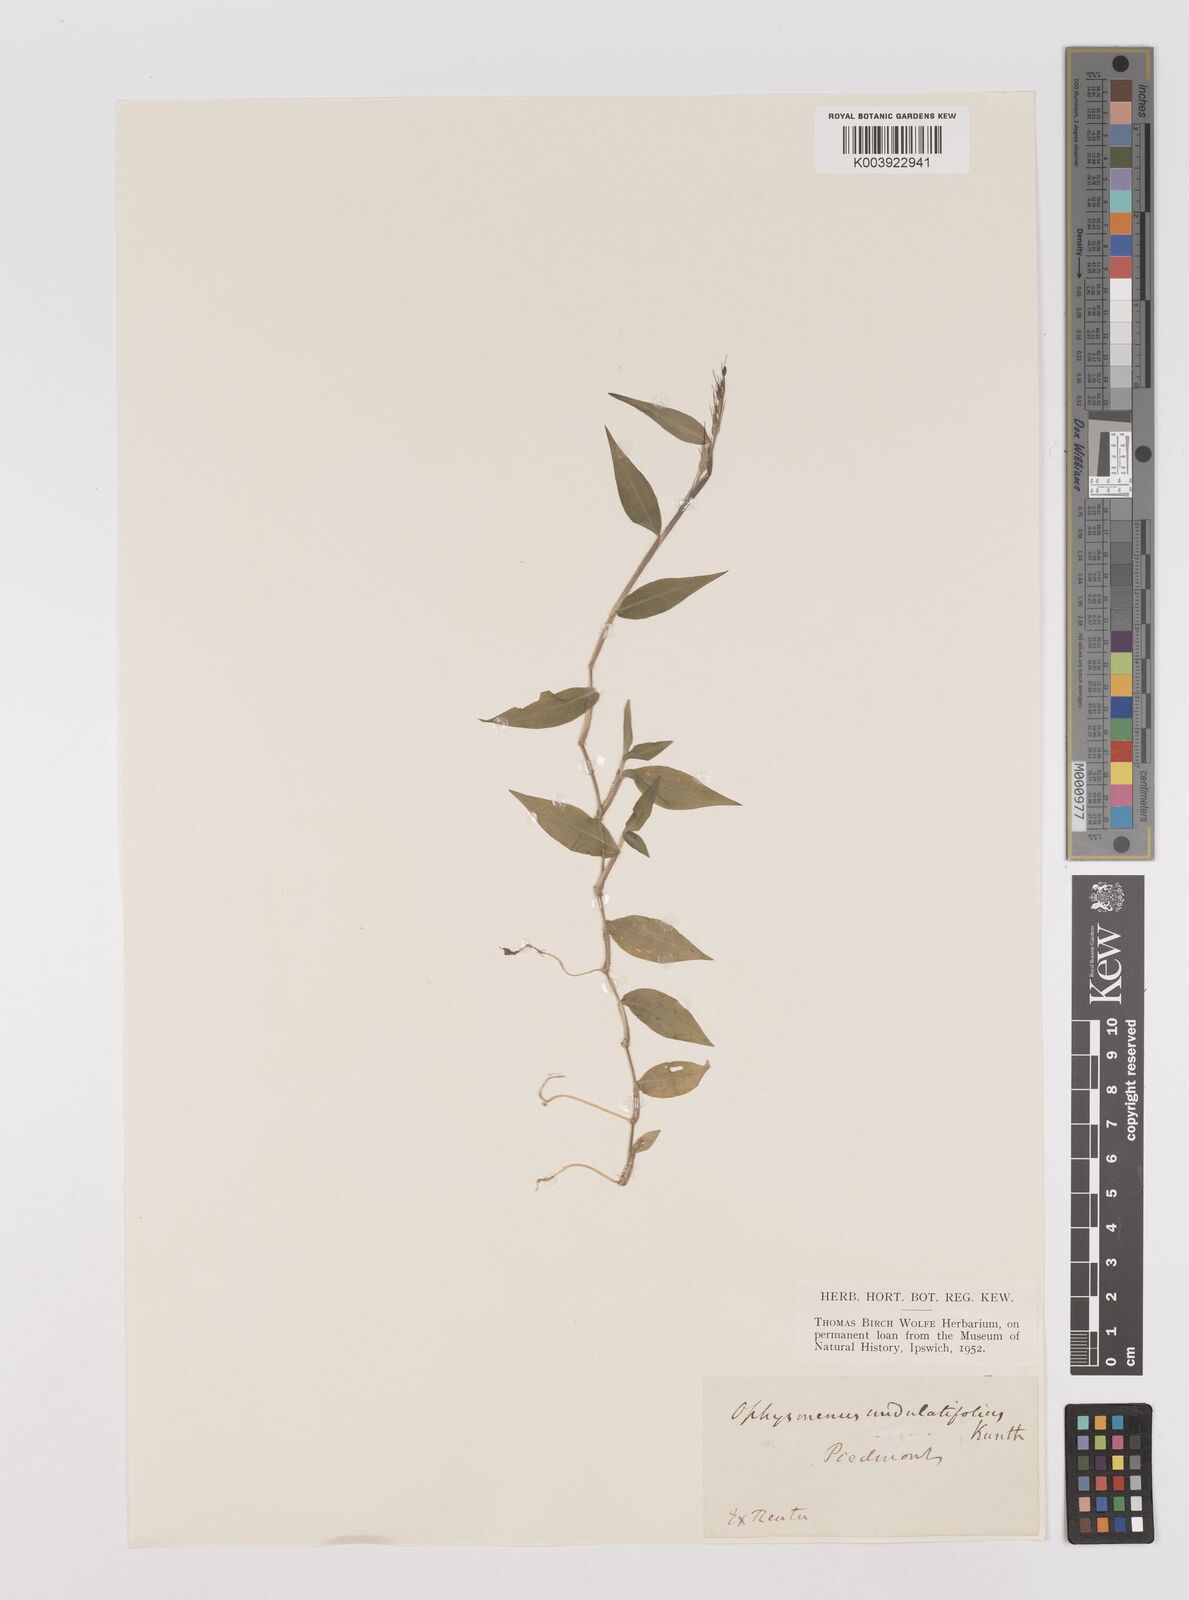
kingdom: Plantae
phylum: Tracheophyta
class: Liliopsida
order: Poales
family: Poaceae
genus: Oplismenus
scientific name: Oplismenus undulatifolius
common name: Wavyleaf basketgrass
